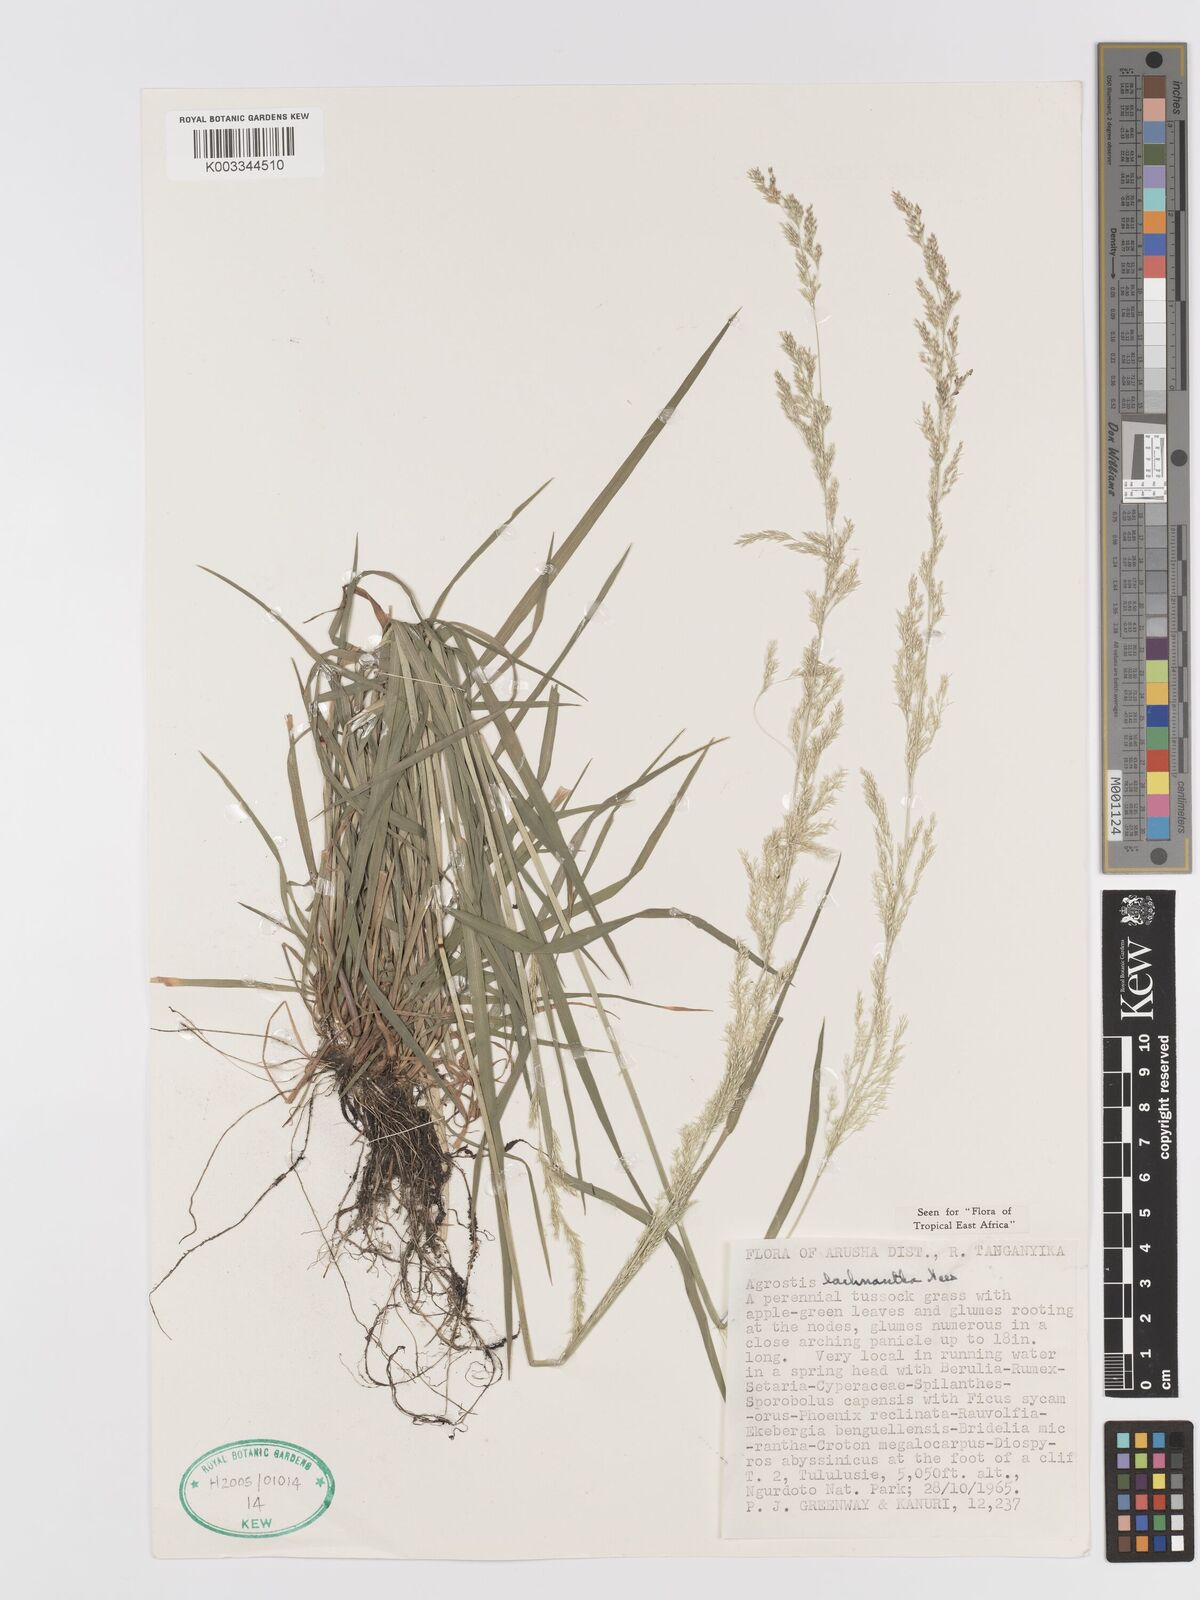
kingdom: Plantae
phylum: Tracheophyta
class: Liliopsida
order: Poales
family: Poaceae
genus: Lachnagrostis
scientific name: Lachnagrostis lachnantha
